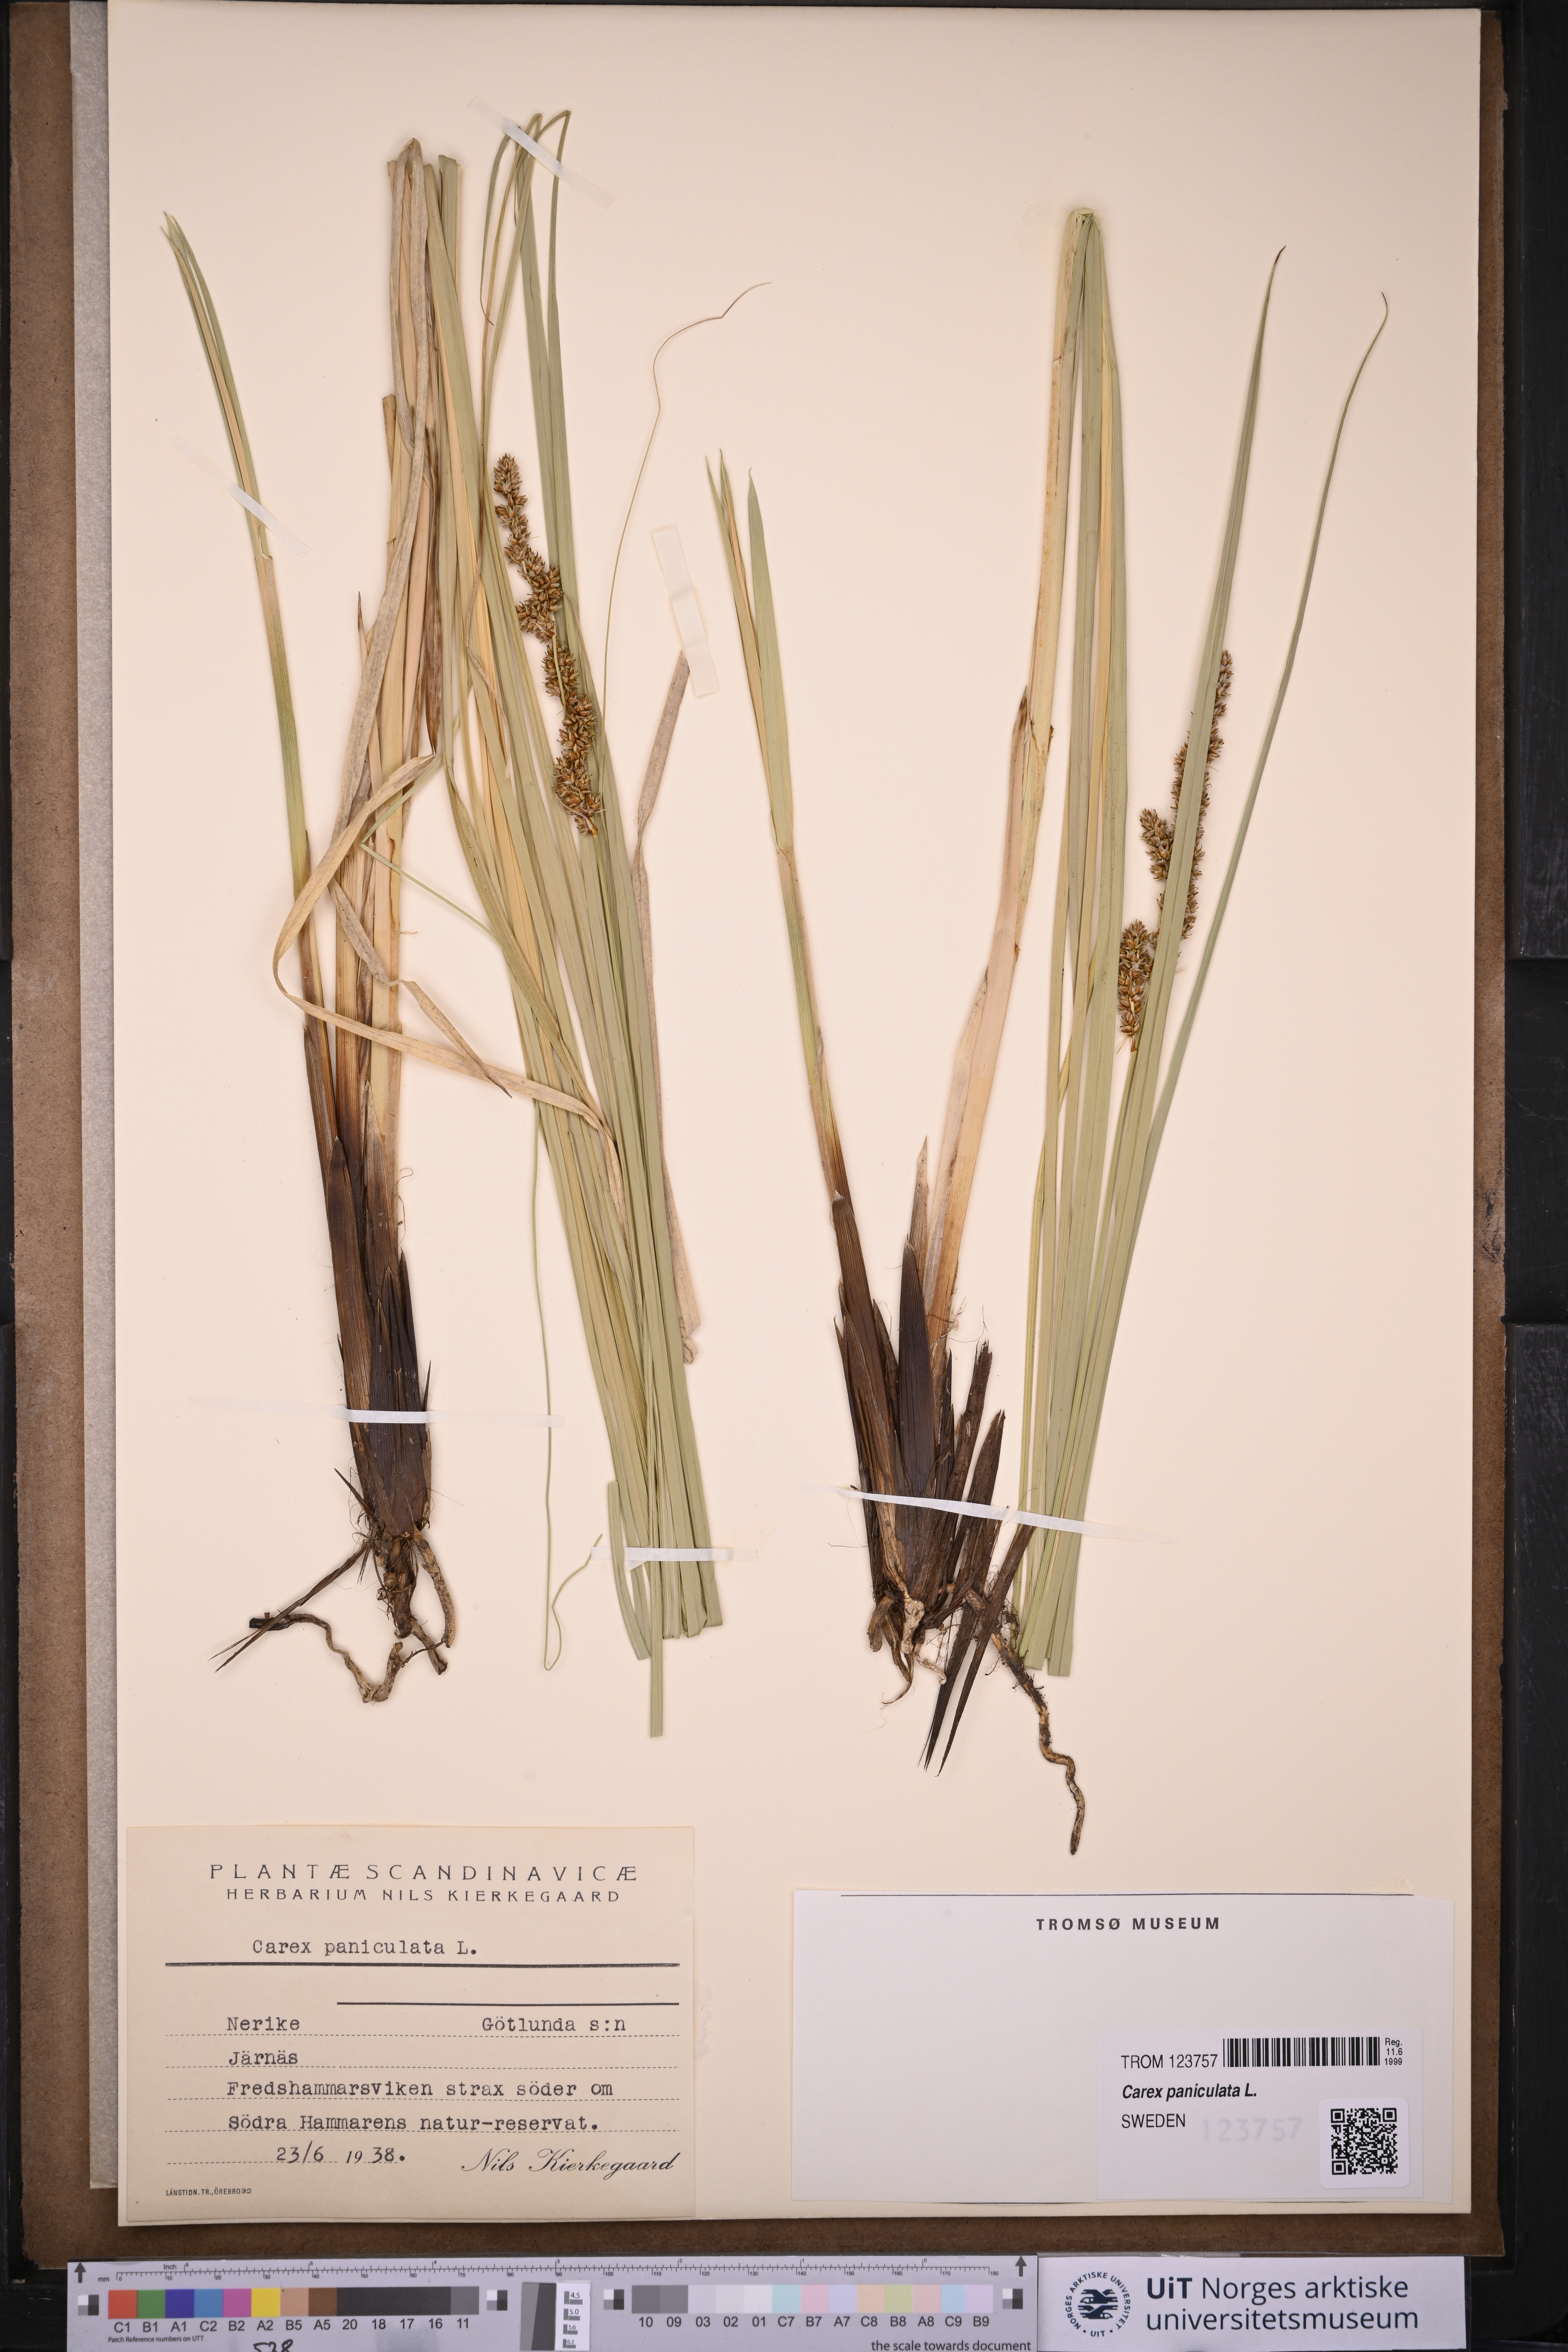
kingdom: Plantae
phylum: Tracheophyta
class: Liliopsida
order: Poales
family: Cyperaceae
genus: Carex
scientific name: Carex paniculata
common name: Greater tussock-sedge
